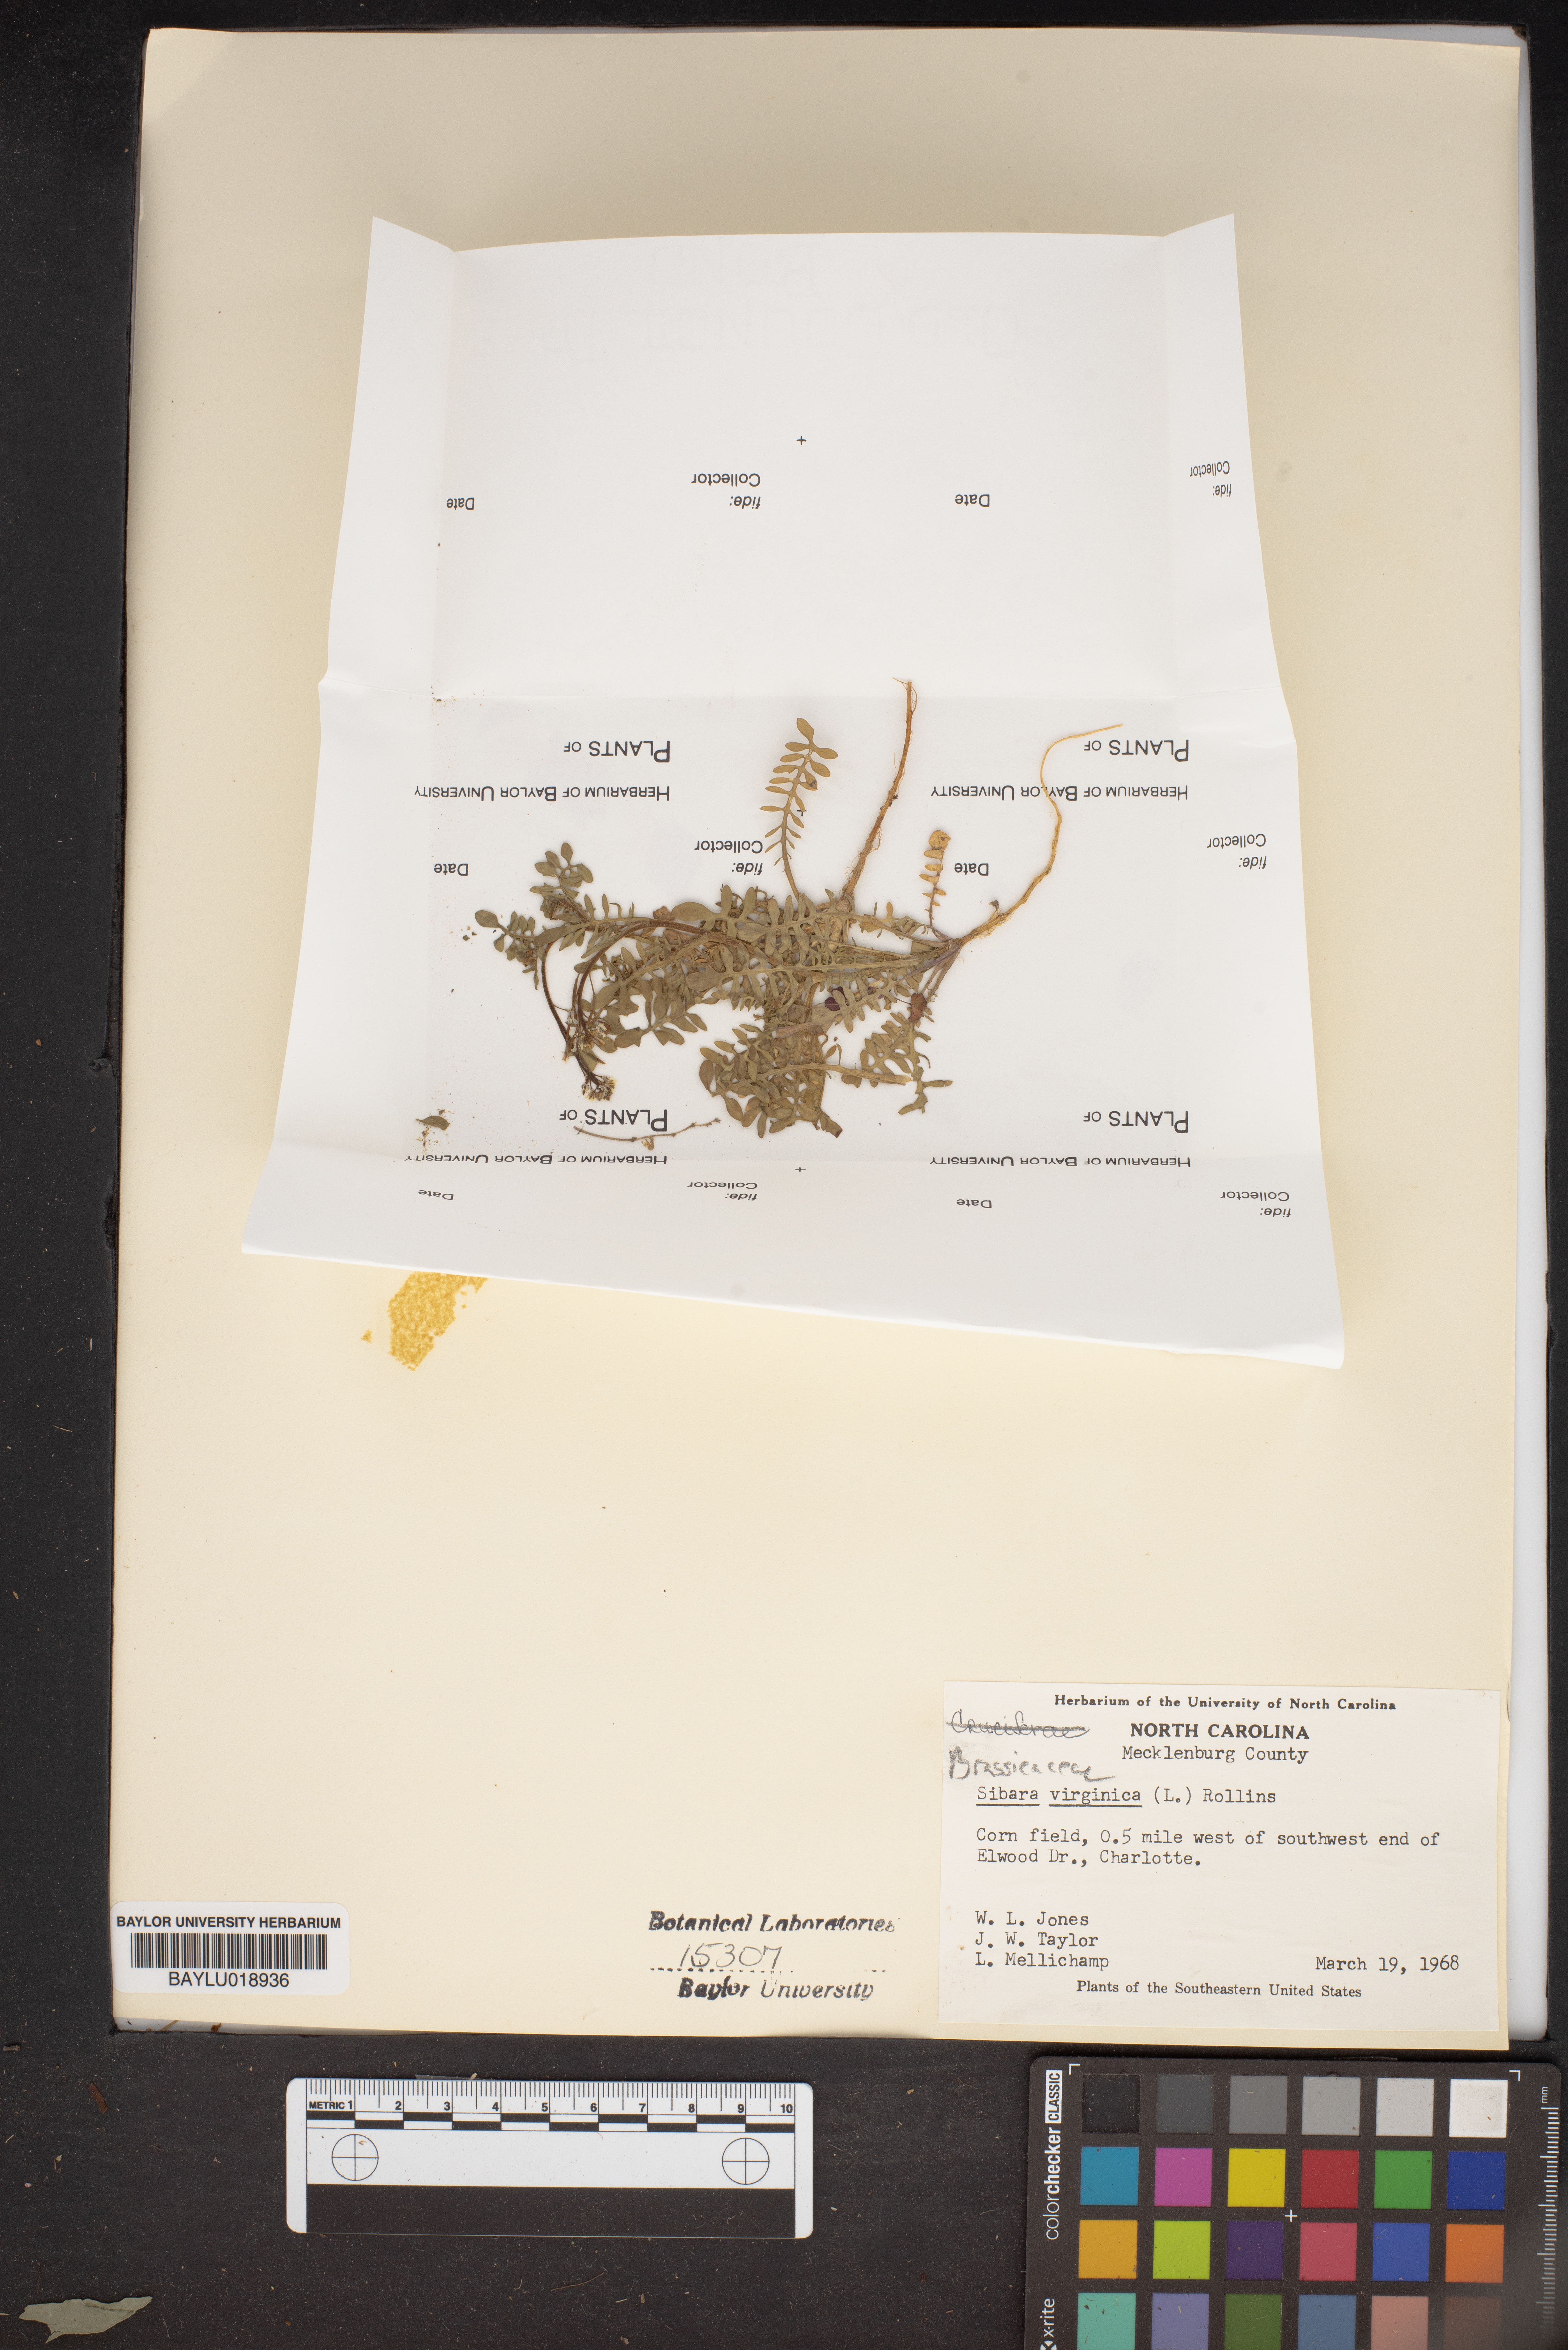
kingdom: Plantae
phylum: Tracheophyta
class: Magnoliopsida
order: Brassicales
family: Brassicaceae
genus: Planodes
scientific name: Planodes virginicum
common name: Virginia cress
